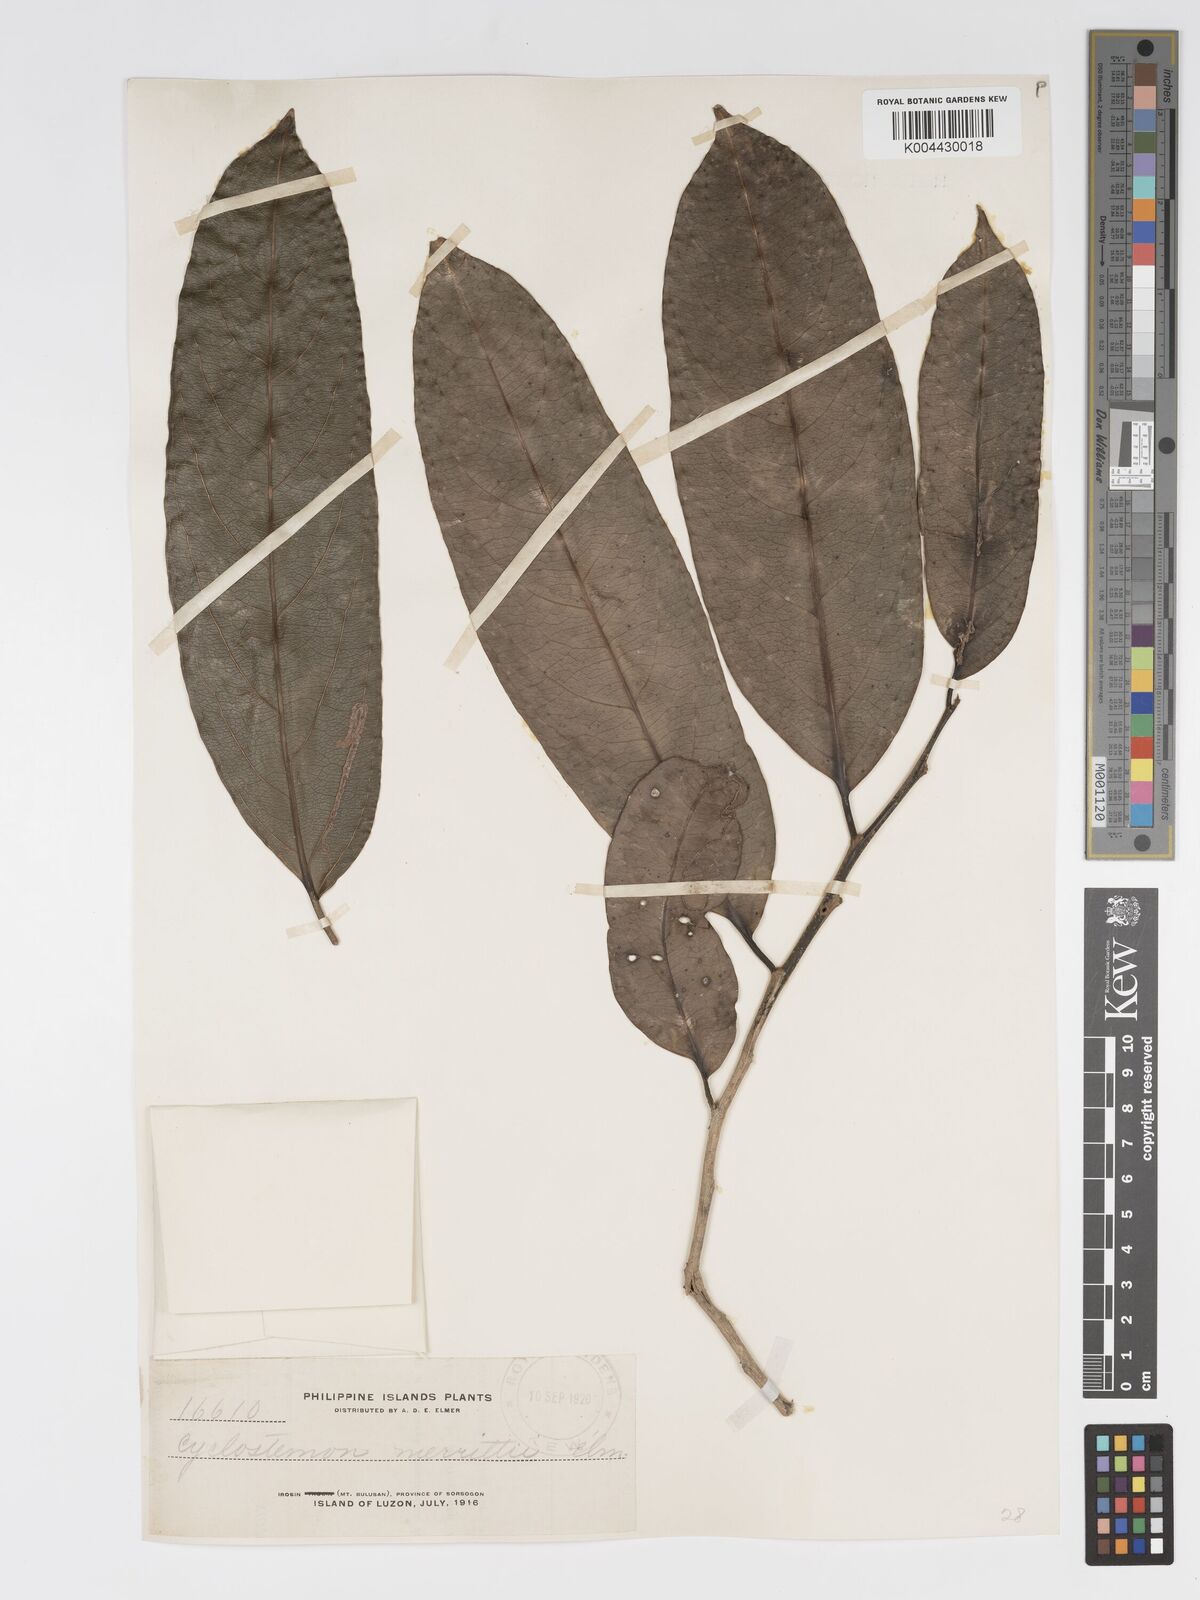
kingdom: Plantae
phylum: Tracheophyta
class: Magnoliopsida
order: Malpighiales
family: Putranjivaceae
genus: Drypetes
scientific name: Drypetes grandifolia
